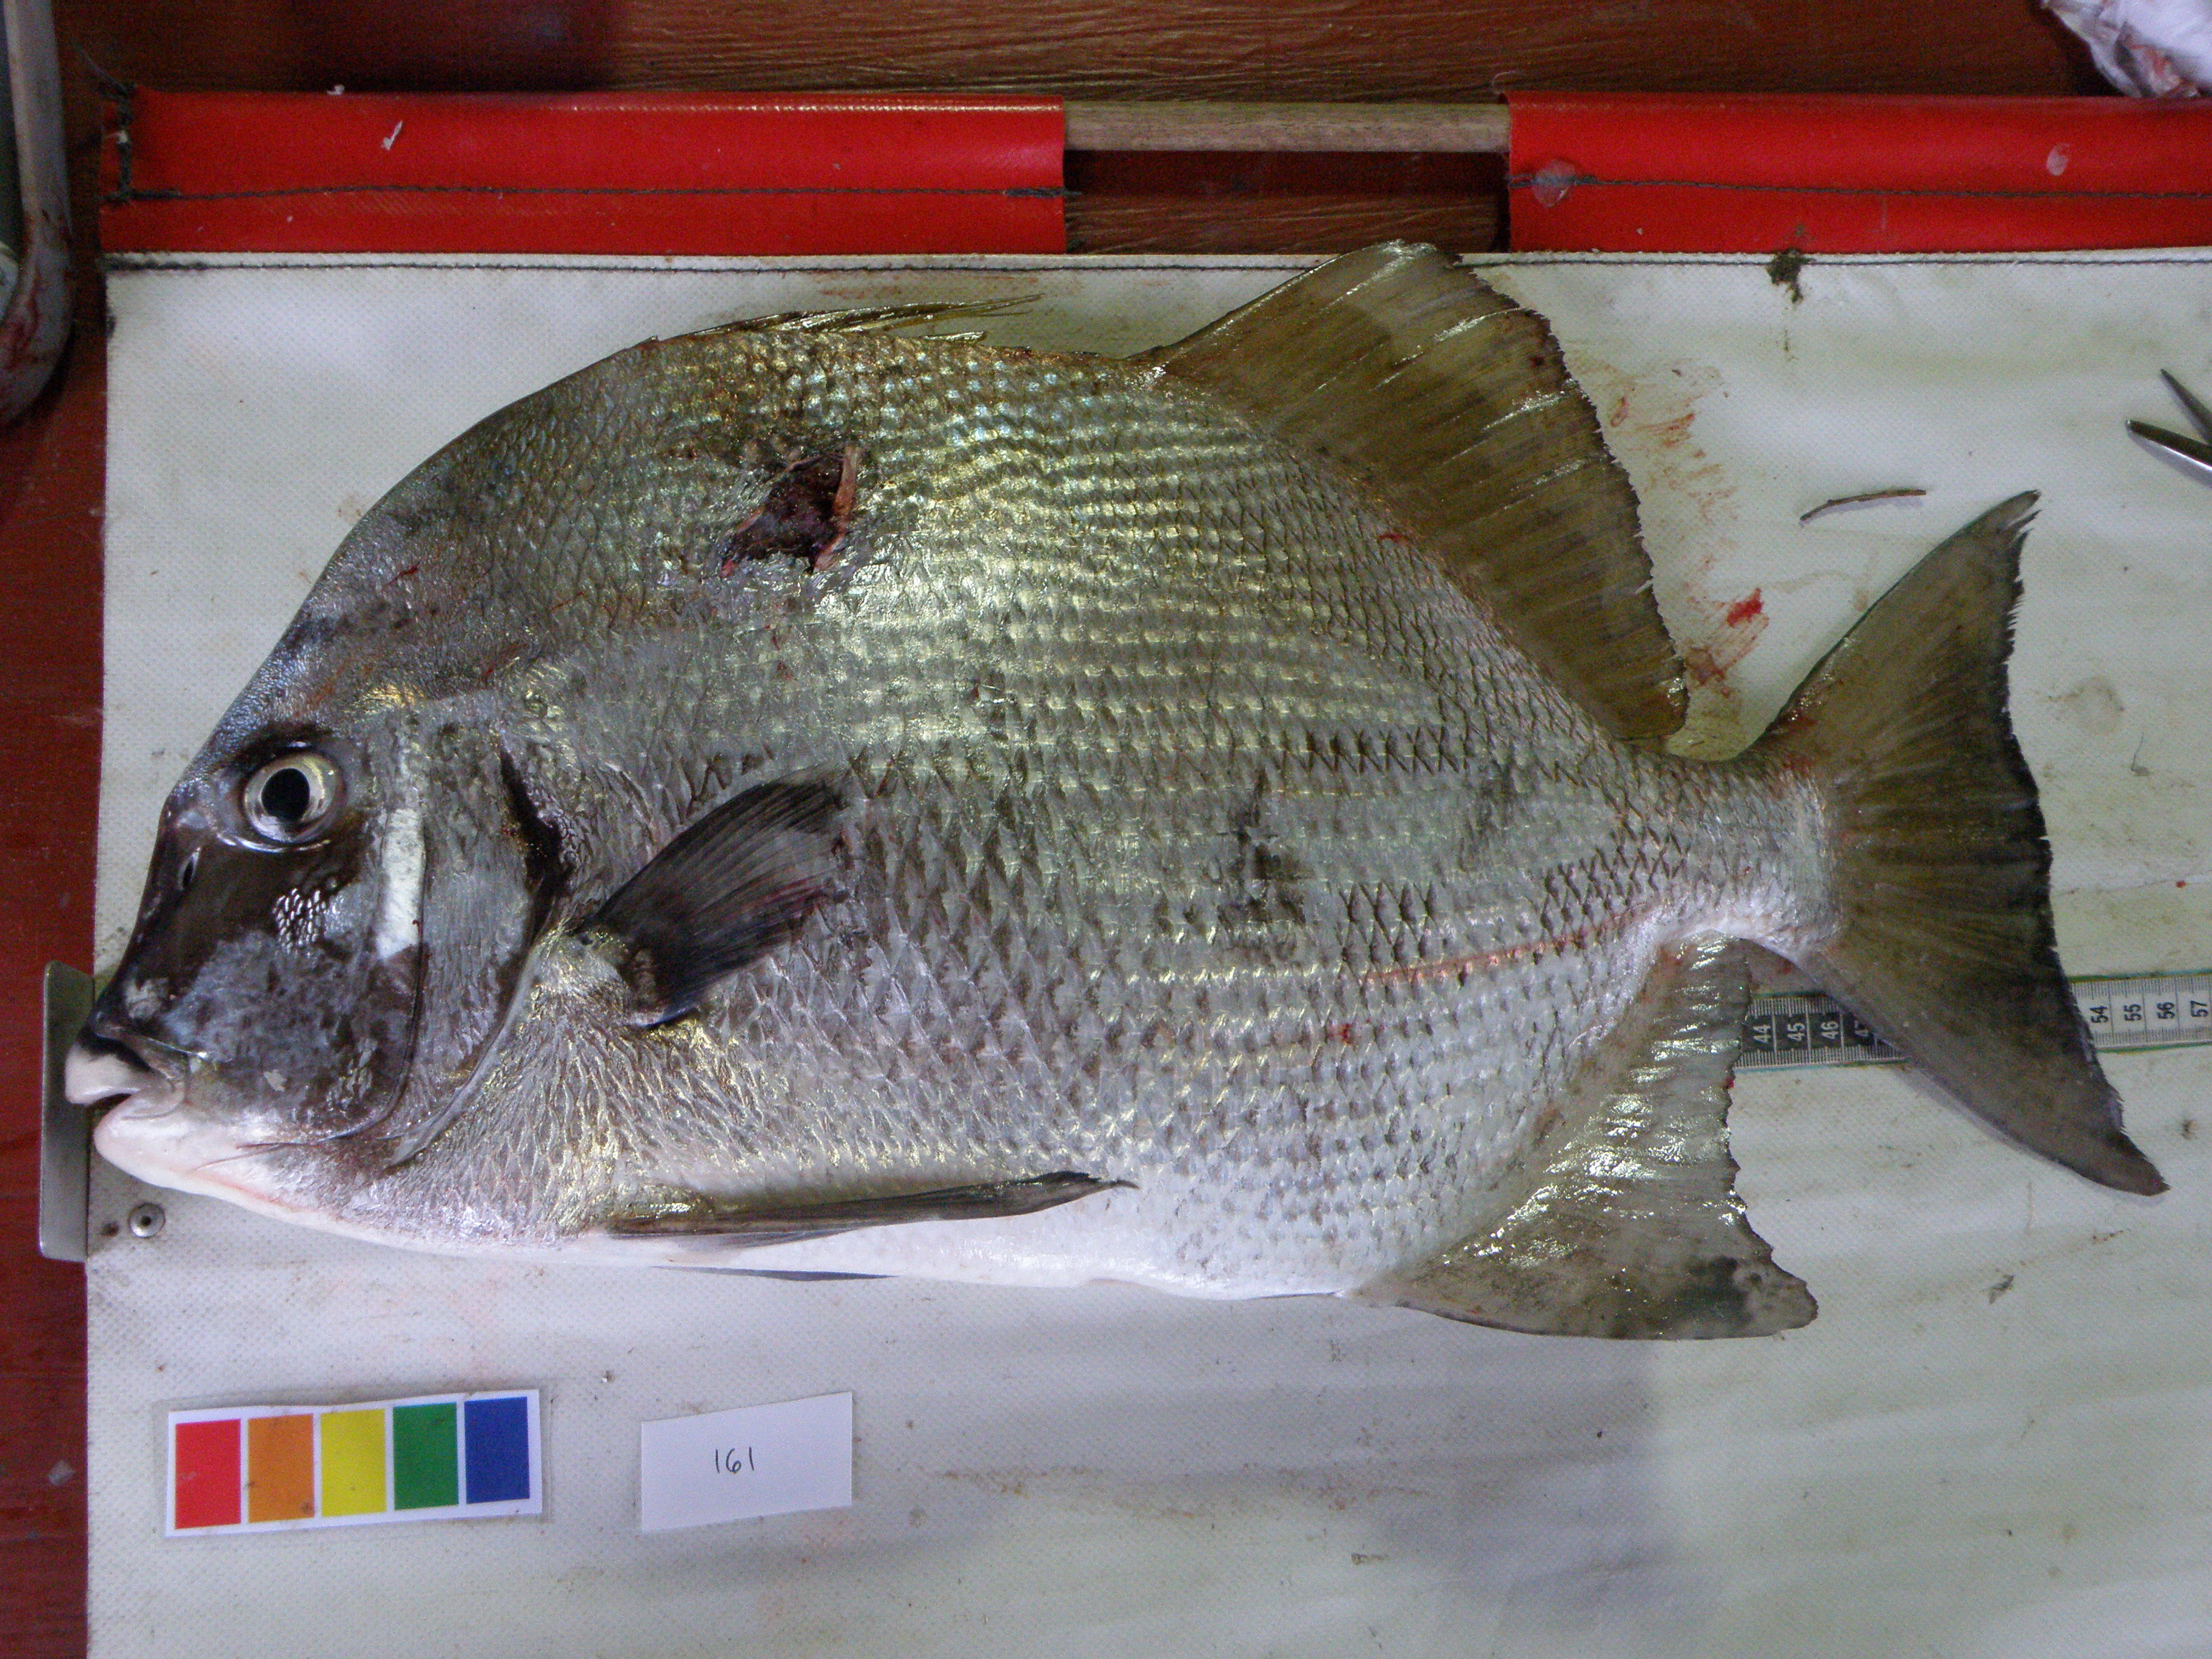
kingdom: Animalia
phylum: Chordata
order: Perciformes
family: Ephippidae
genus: Tripterodon
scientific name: Tripterodon orbis
